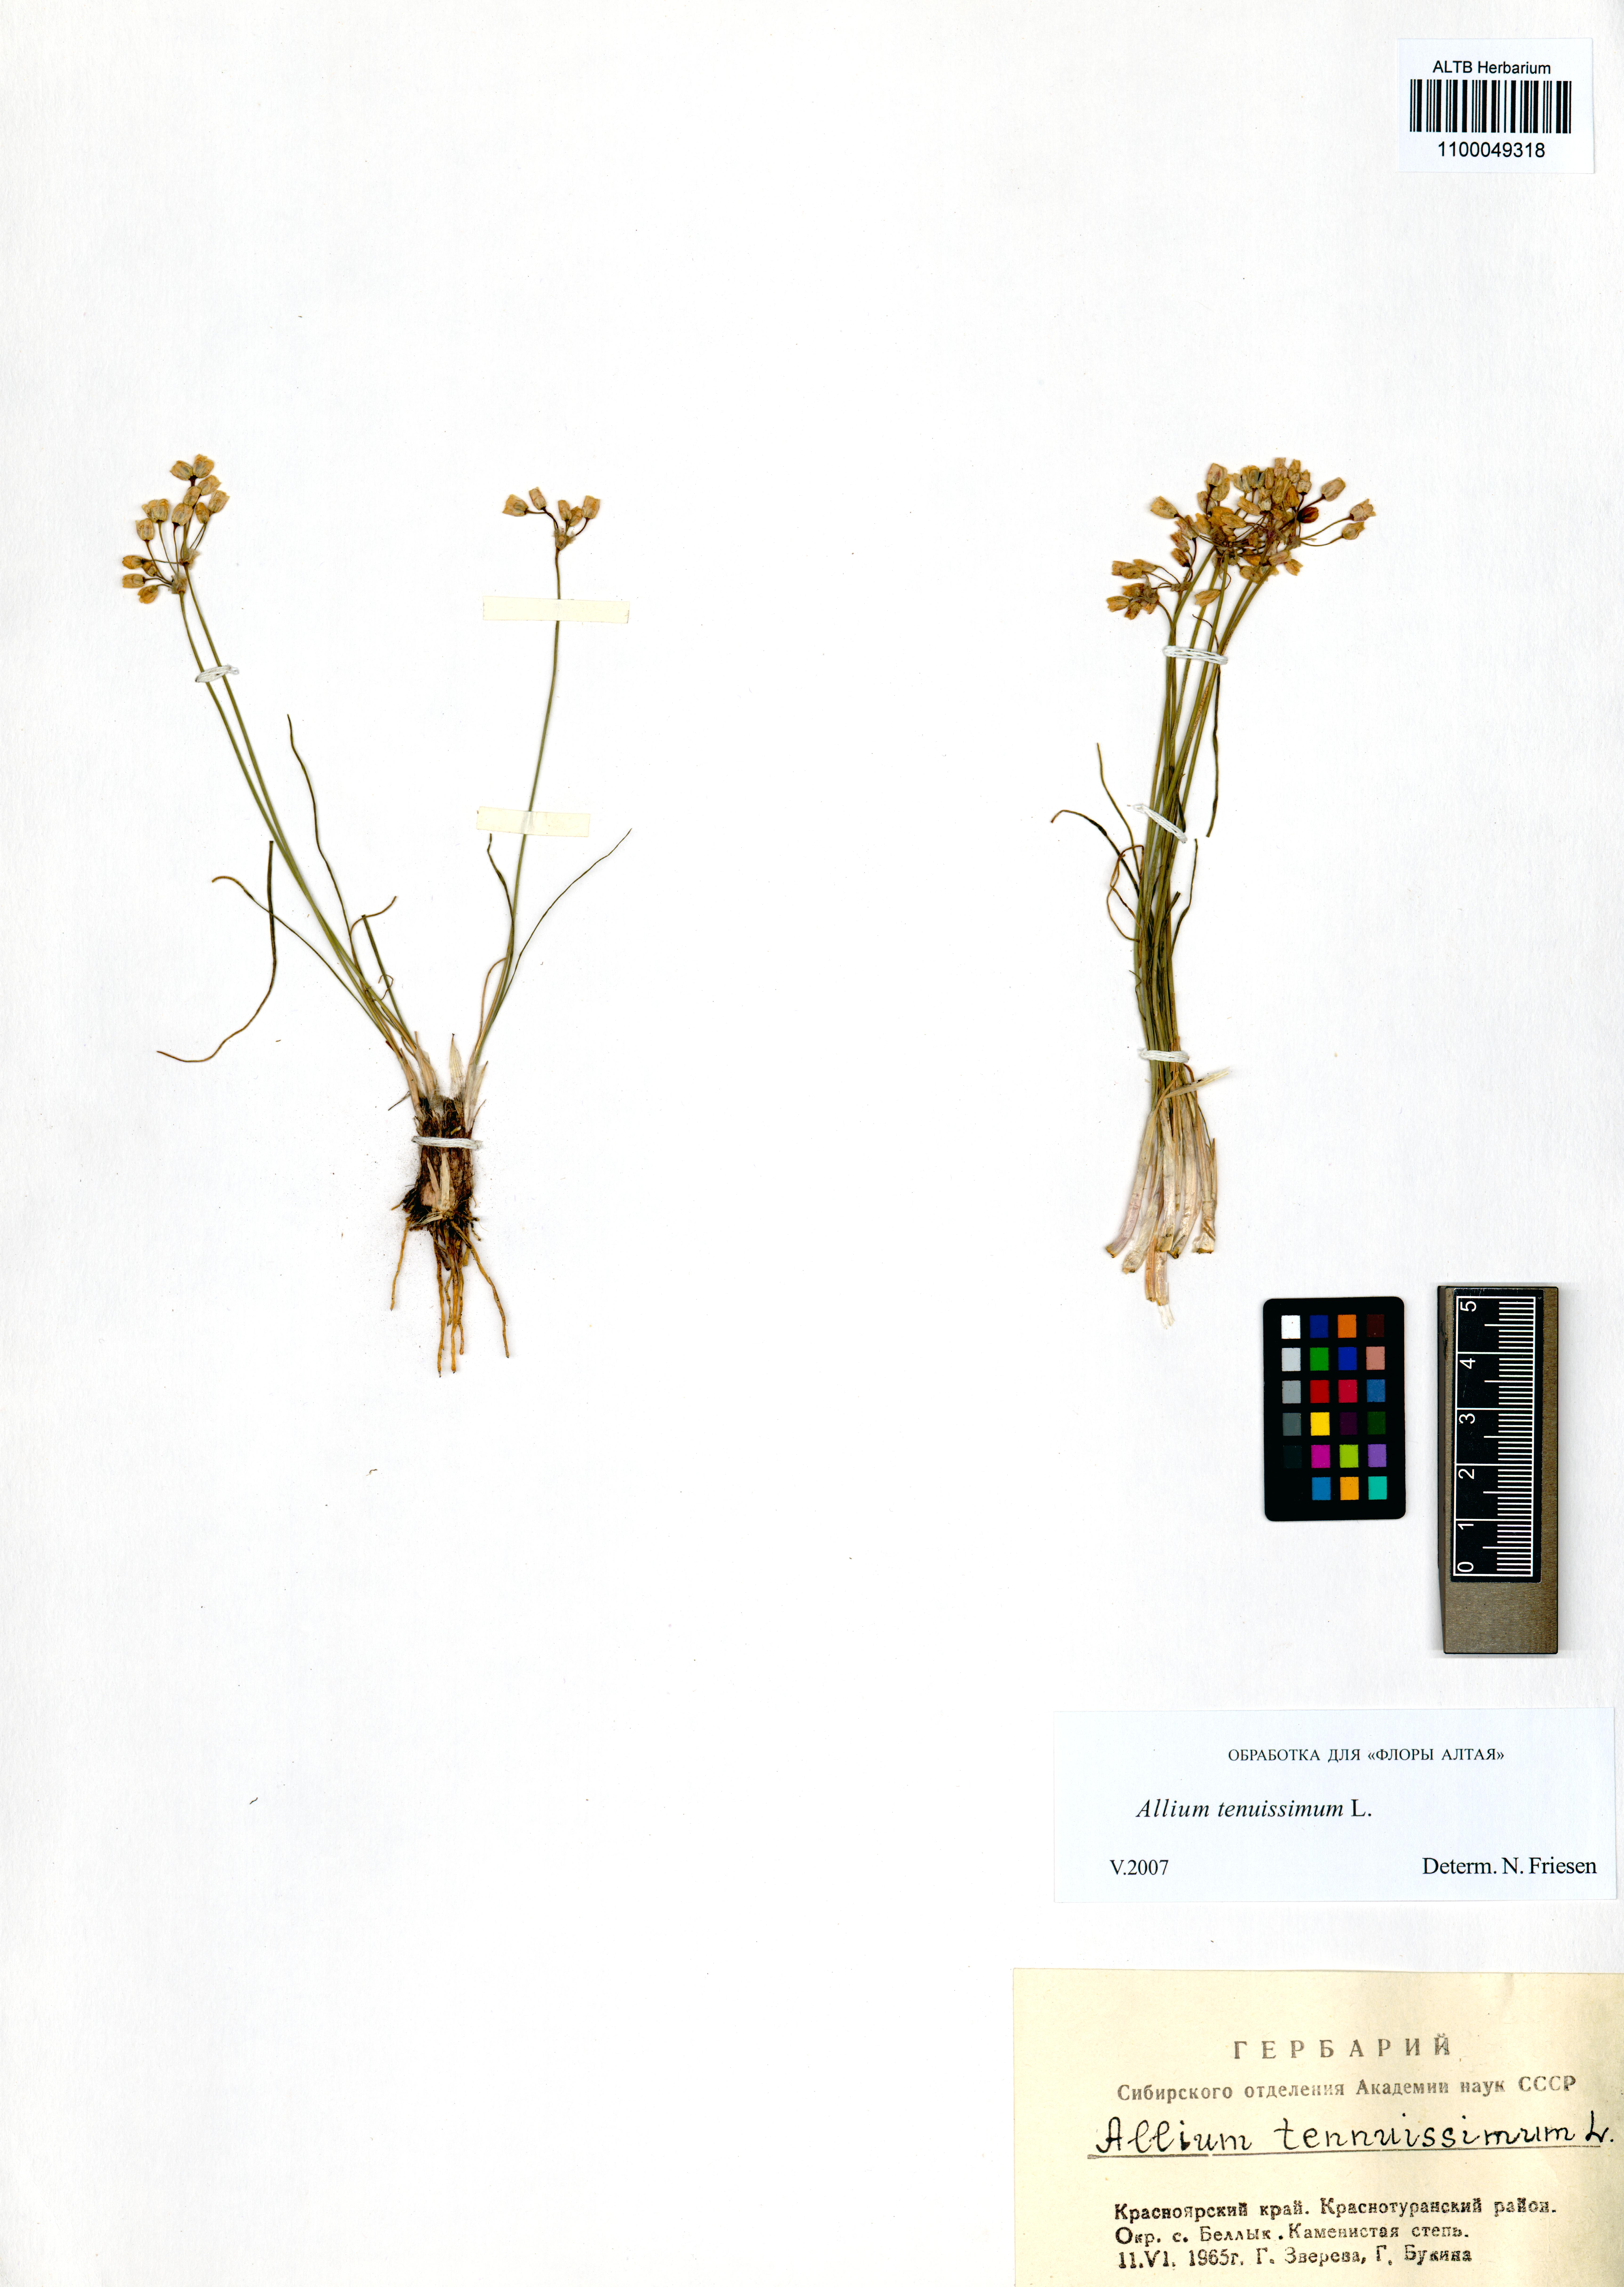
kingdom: Plantae
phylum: Tracheophyta
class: Liliopsida
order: Asparagales
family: Amaryllidaceae
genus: Allium
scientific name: Allium tenuissimum
